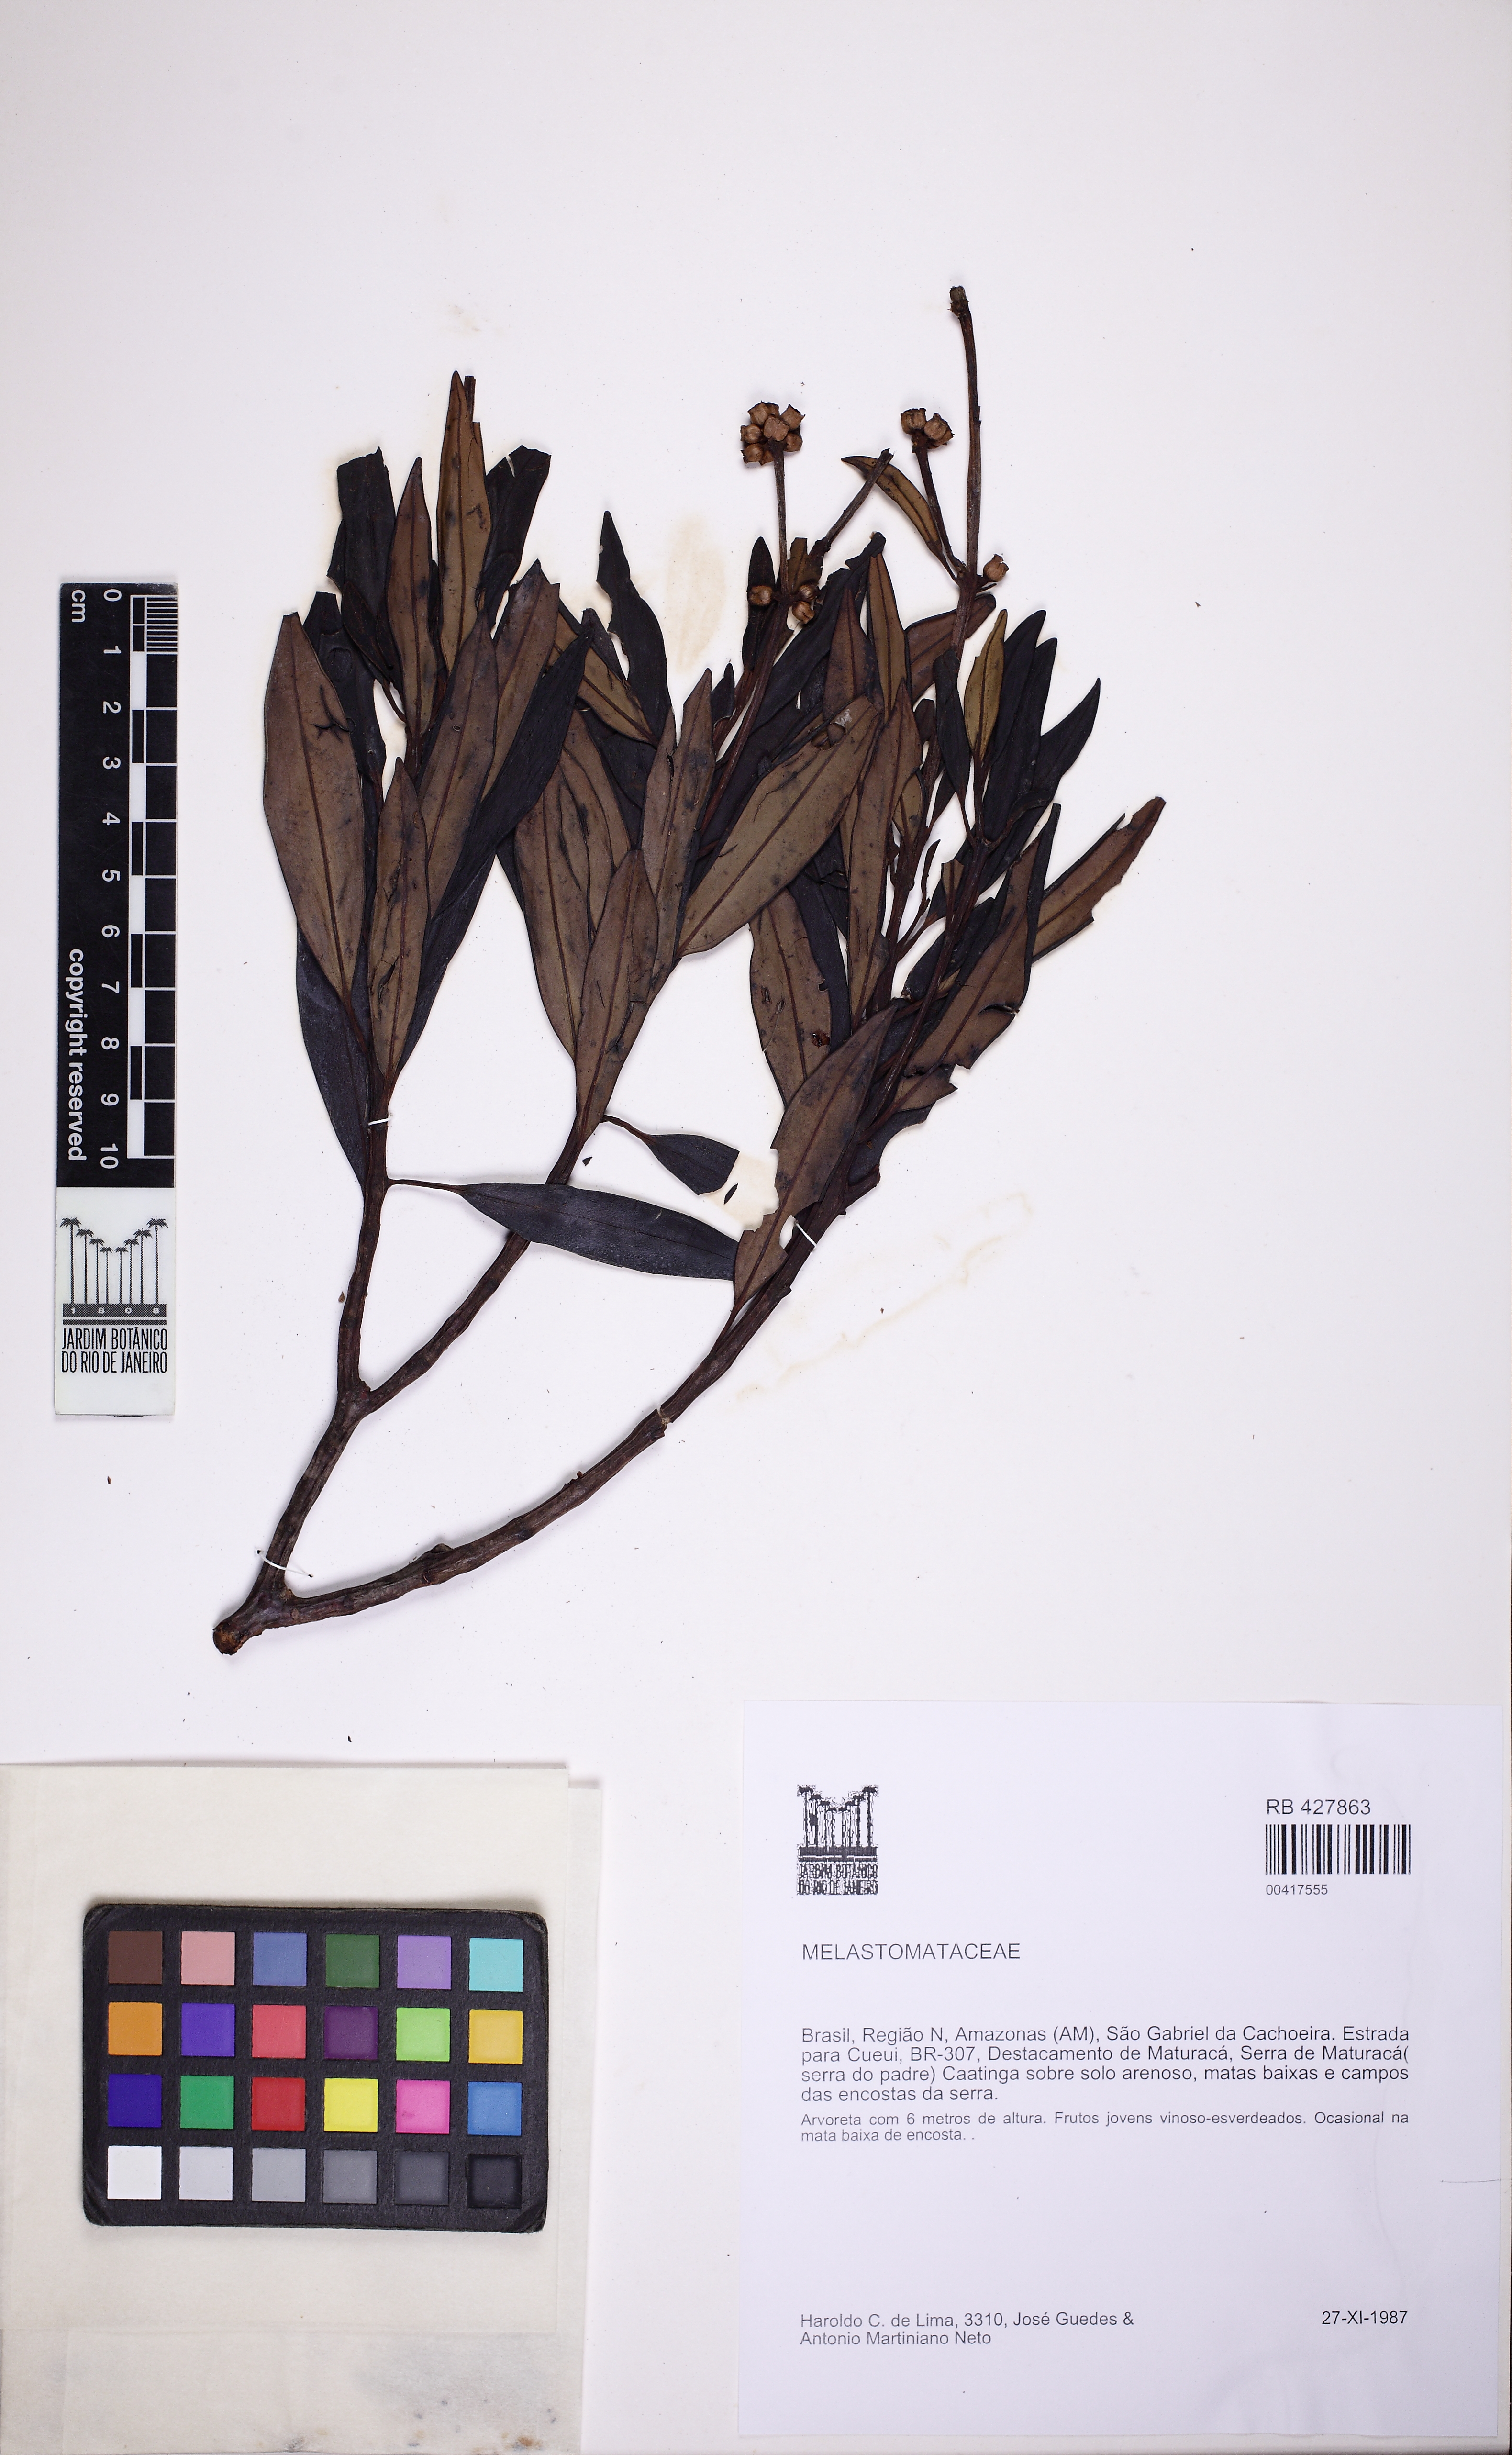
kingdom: Plantae
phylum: Tracheophyta
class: Magnoliopsida
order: Myrtales
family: Melastomataceae
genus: Graffenrieda
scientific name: Graffenrieda maturaca
